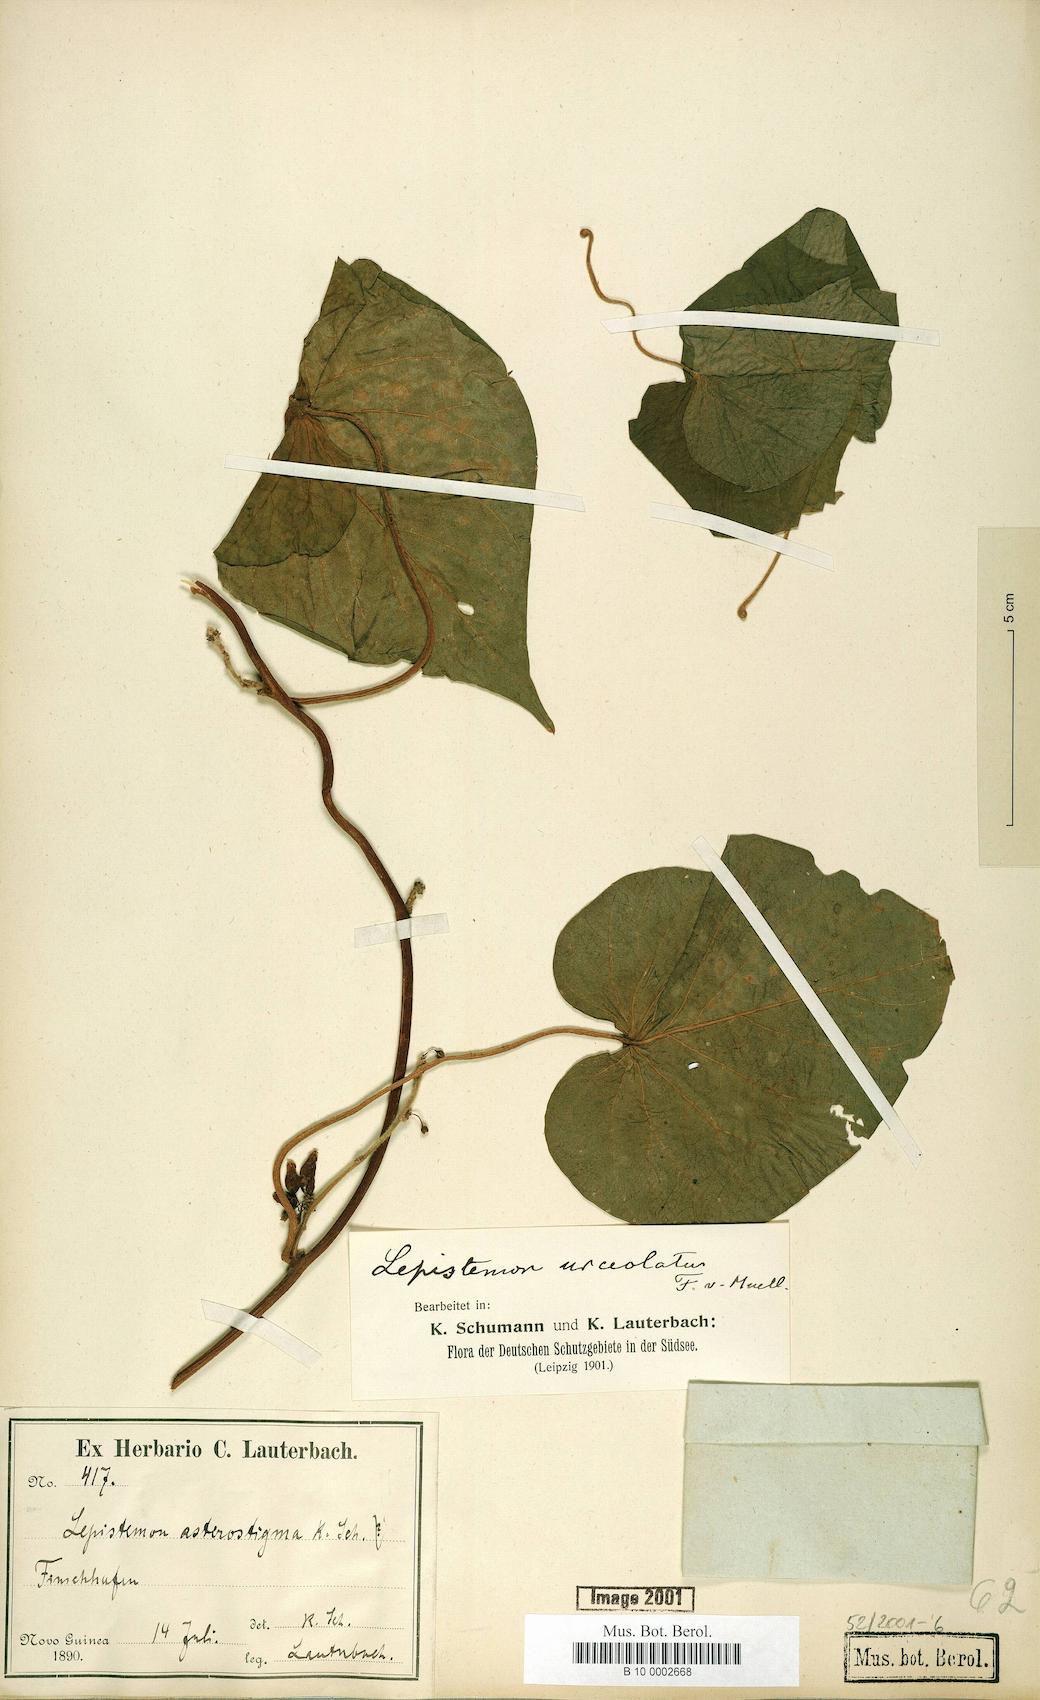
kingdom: Plantae
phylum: Tracheophyta
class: Magnoliopsida
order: Solanales
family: Convolvulaceae
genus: Lepistemon
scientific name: Lepistemon urceolatus
